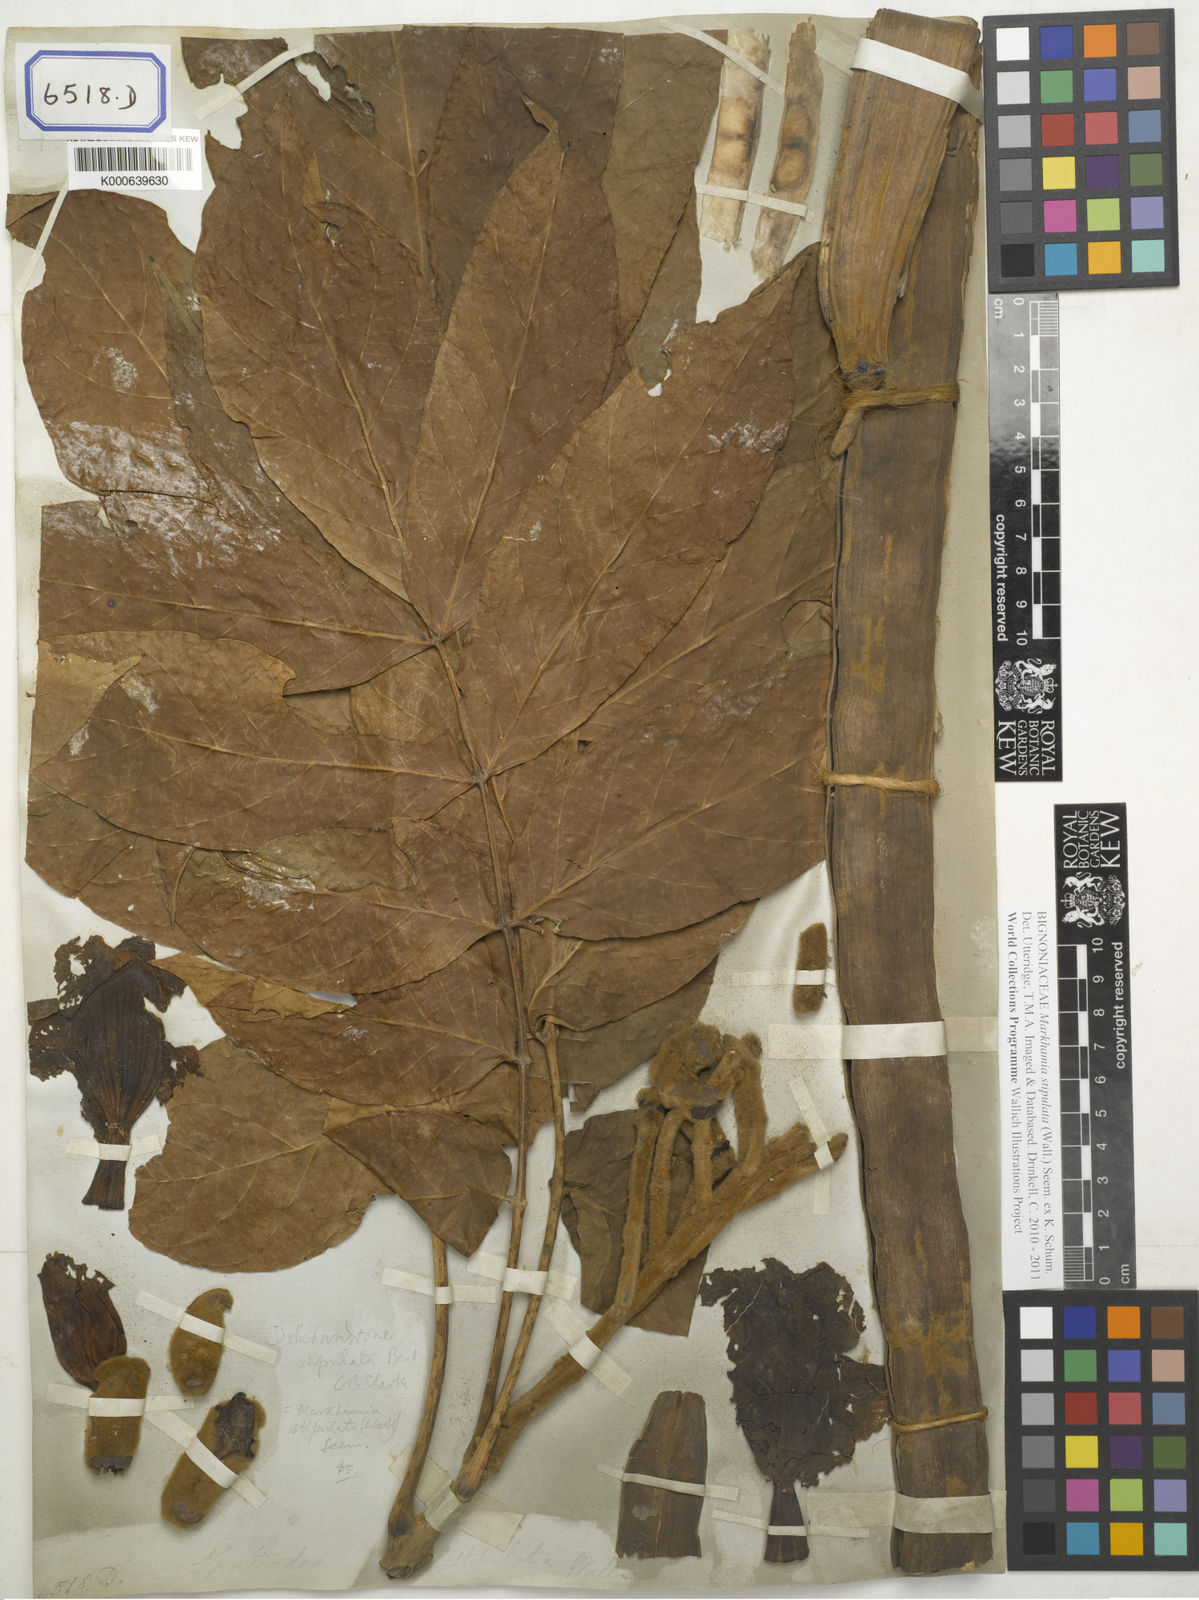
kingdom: Plantae
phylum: Tracheophyta
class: Magnoliopsida
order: Lamiales
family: Bignoniaceae
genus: Markhamia
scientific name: Markhamia stipulata
